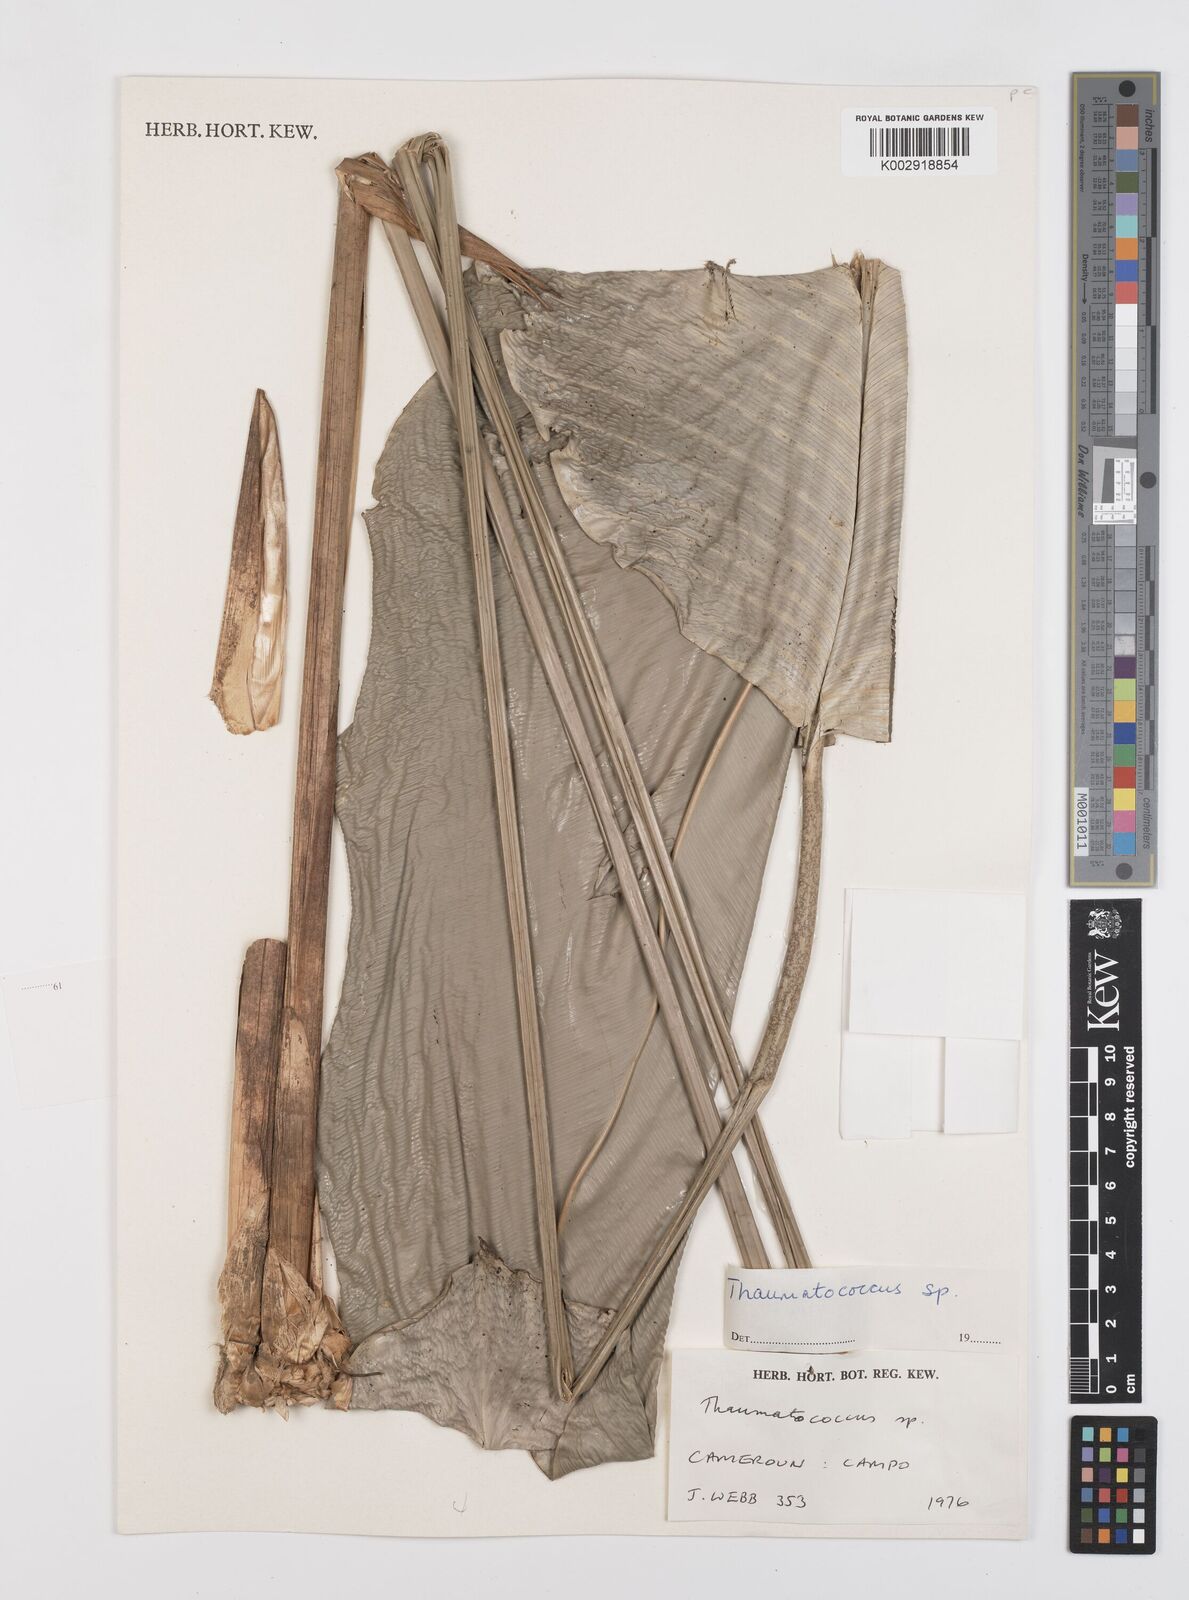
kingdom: Plantae
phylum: Tracheophyta
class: Liliopsida
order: Zingiberales
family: Marantaceae
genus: Thaumatococcus
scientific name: Thaumatococcus
